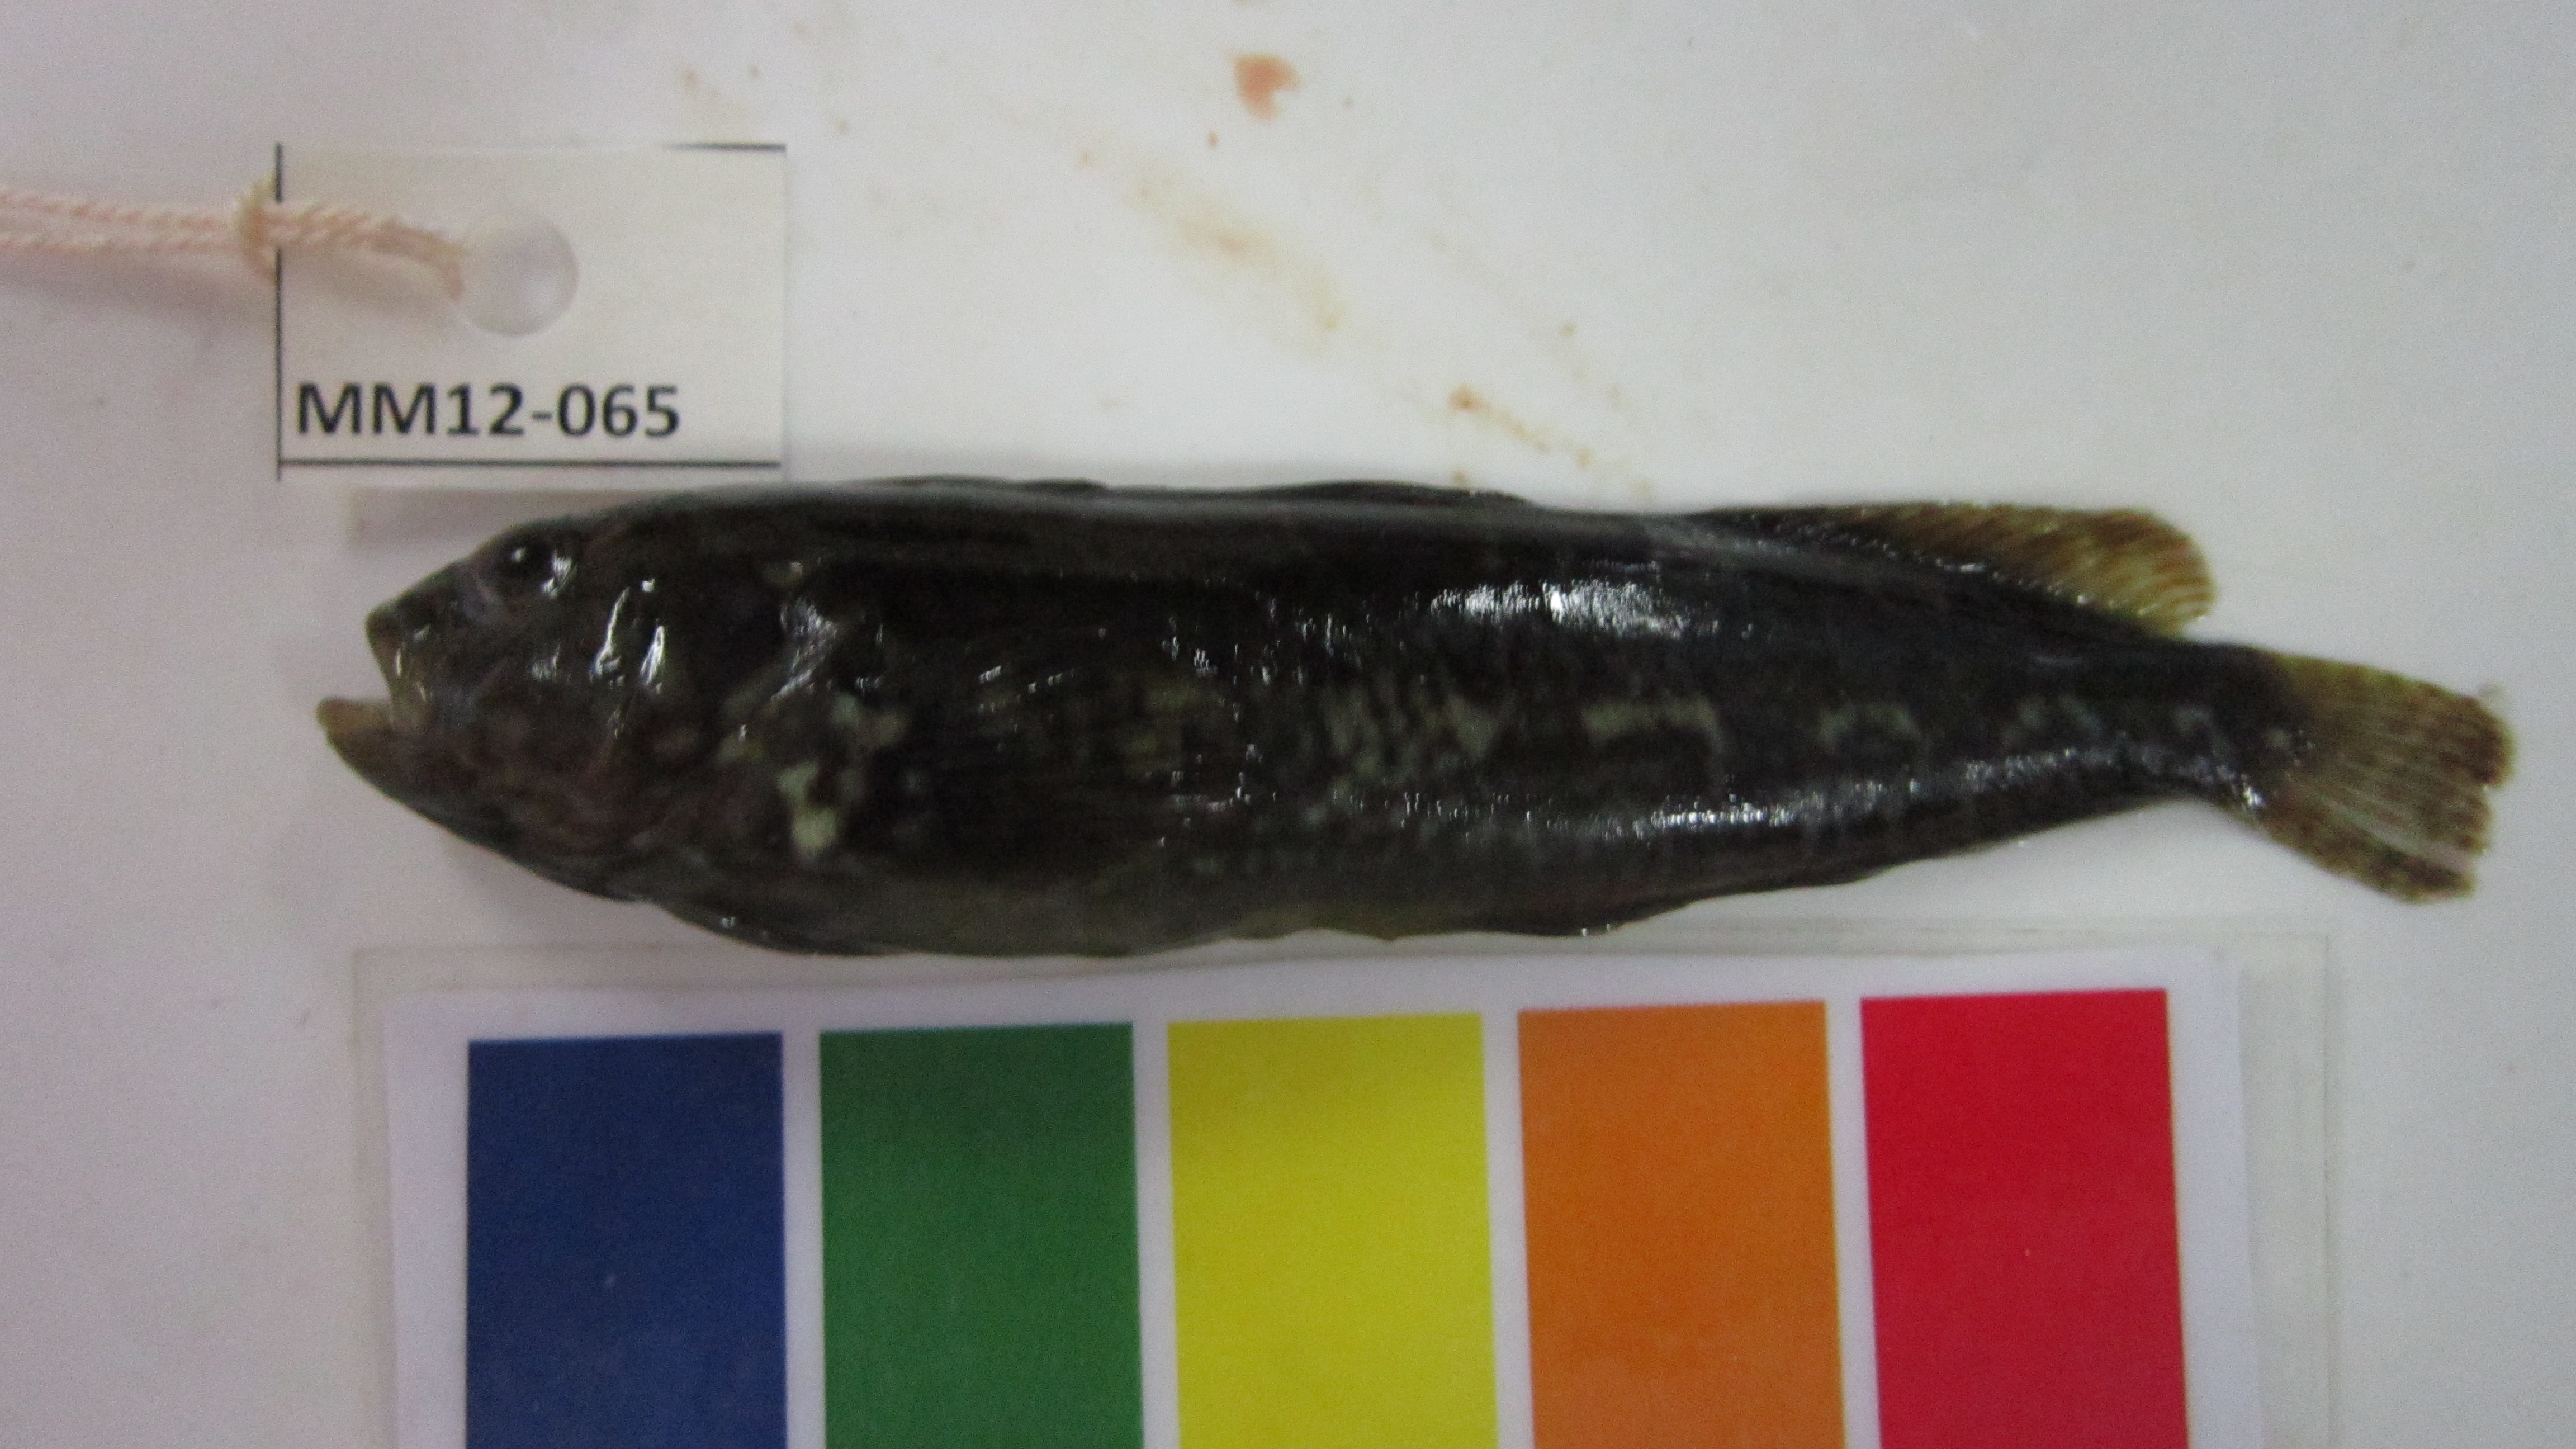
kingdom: Animalia
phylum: Chordata
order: Perciformes
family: Clinidae
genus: Clinus
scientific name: Clinus spatulatus
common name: Bot river klipfish
